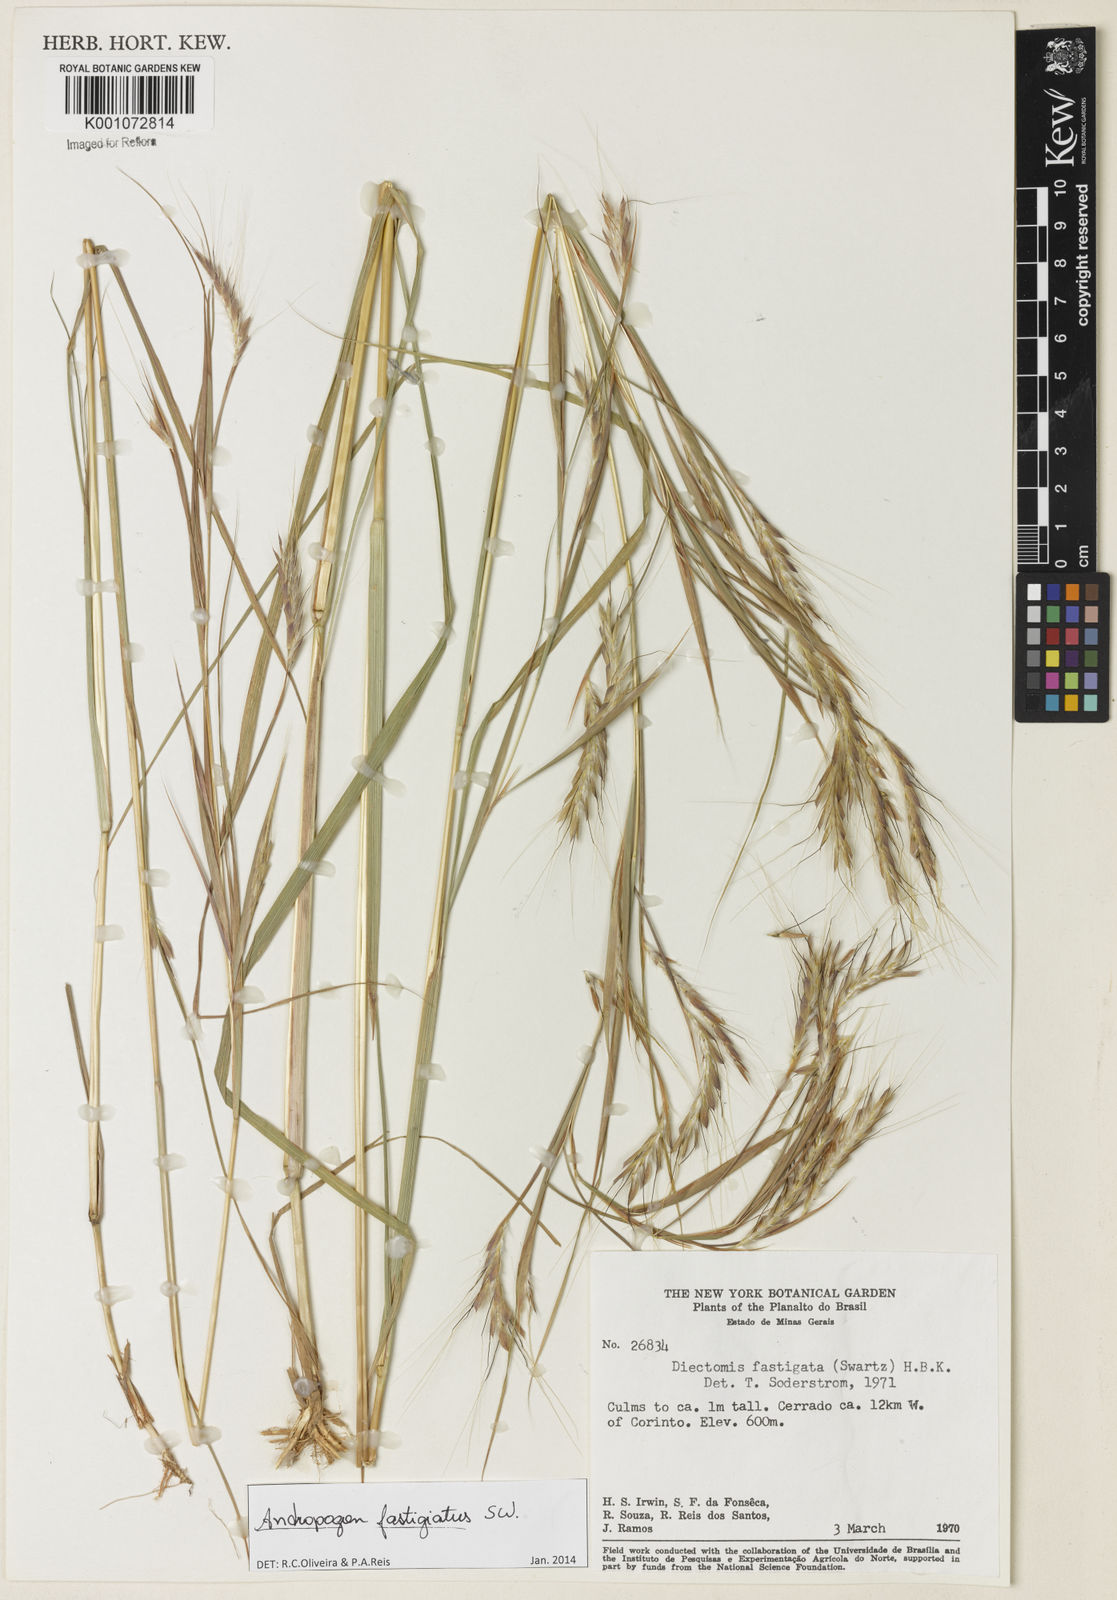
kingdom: Plantae
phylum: Tracheophyta
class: Liliopsida
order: Poales
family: Poaceae
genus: Diectomis
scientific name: Diectomis fastigiata
